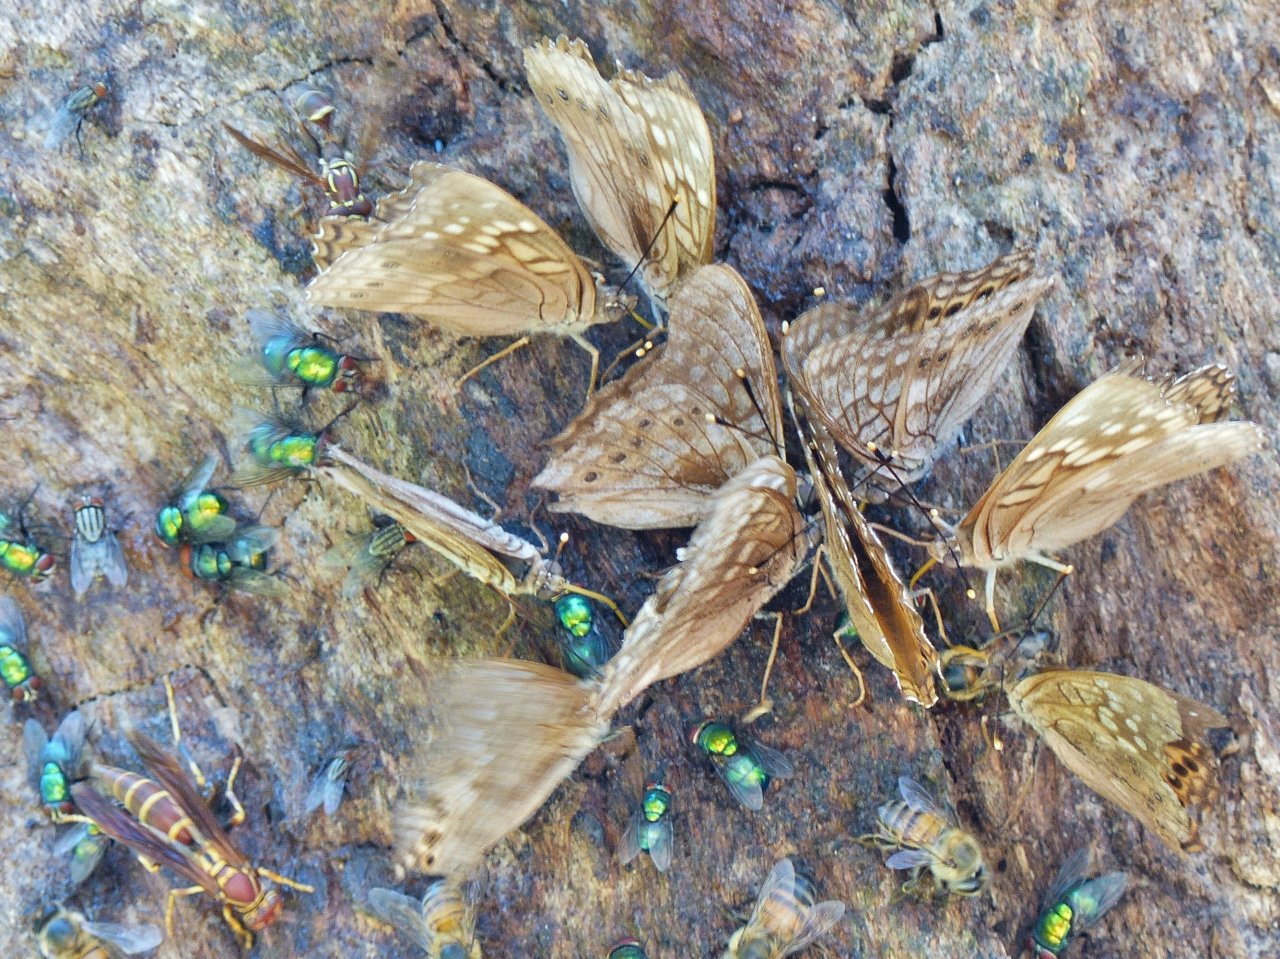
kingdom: Animalia
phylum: Arthropoda
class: Insecta
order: Lepidoptera
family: Nymphalidae
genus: Asterocampa
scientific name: Asterocampa clyton
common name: Tawny Emperor
